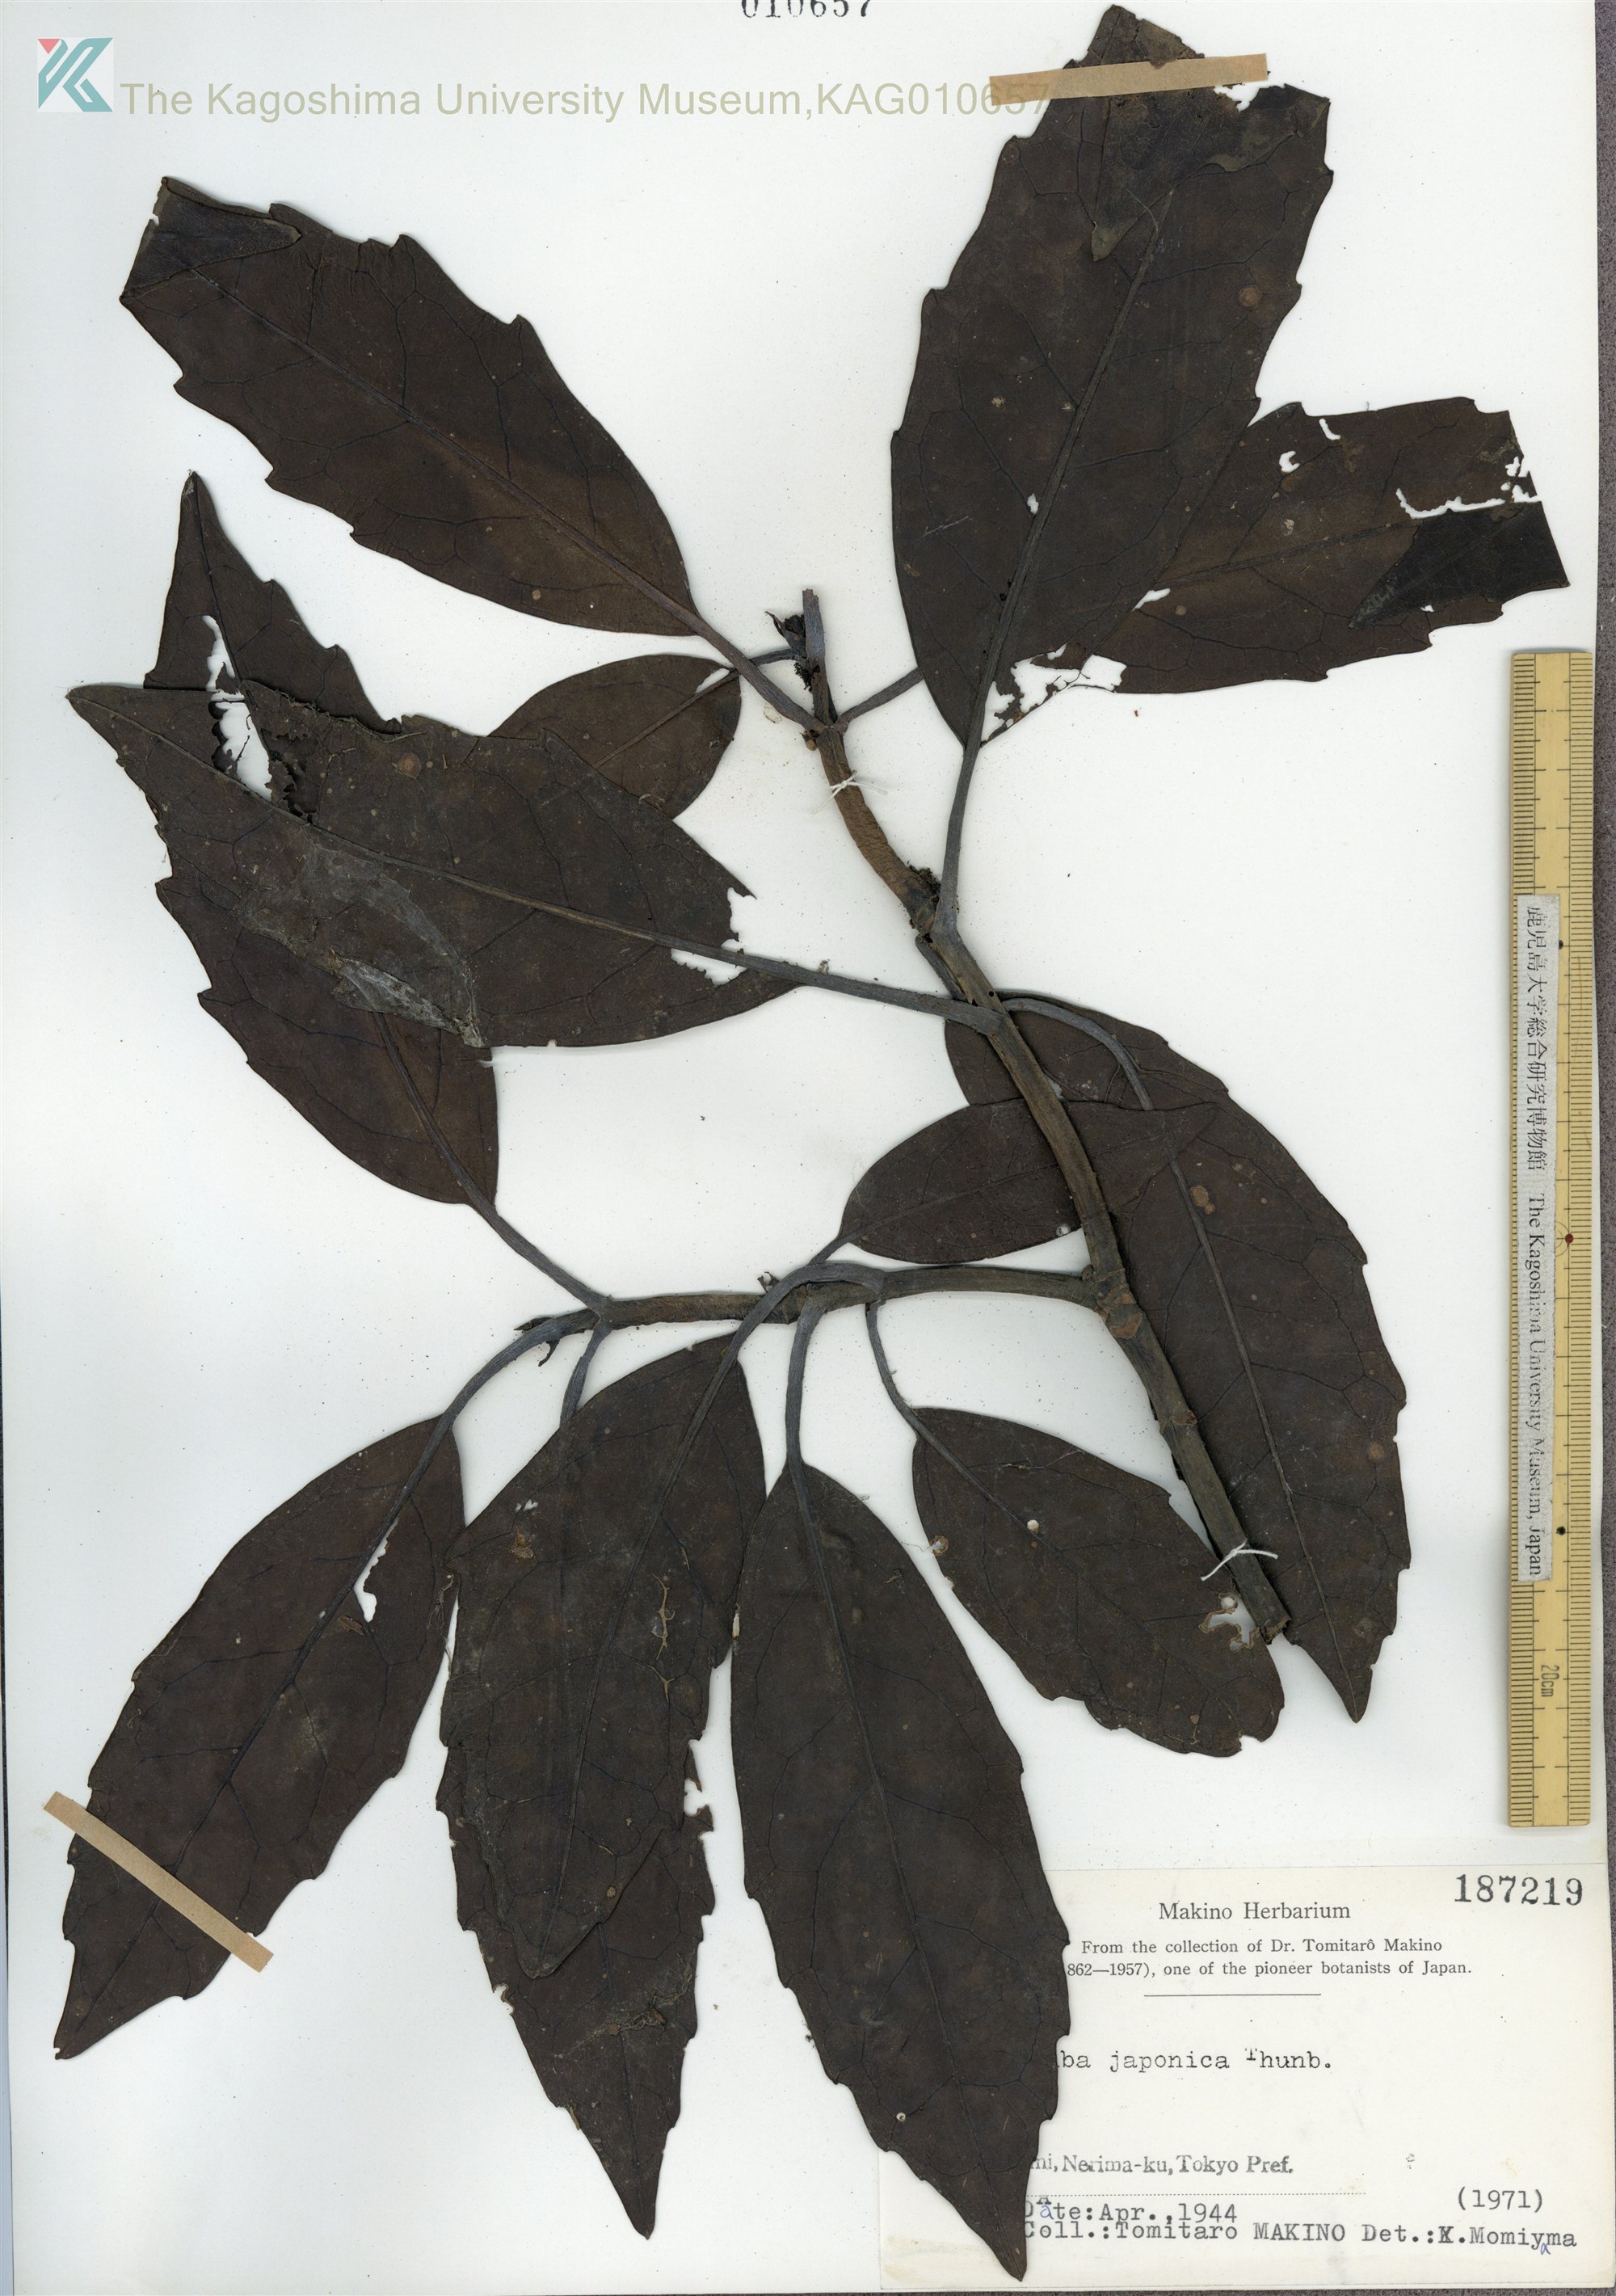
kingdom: Plantae
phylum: Tracheophyta
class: Magnoliopsida
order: Garryales
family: Garryaceae
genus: Aucuba
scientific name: Aucuba japonica
